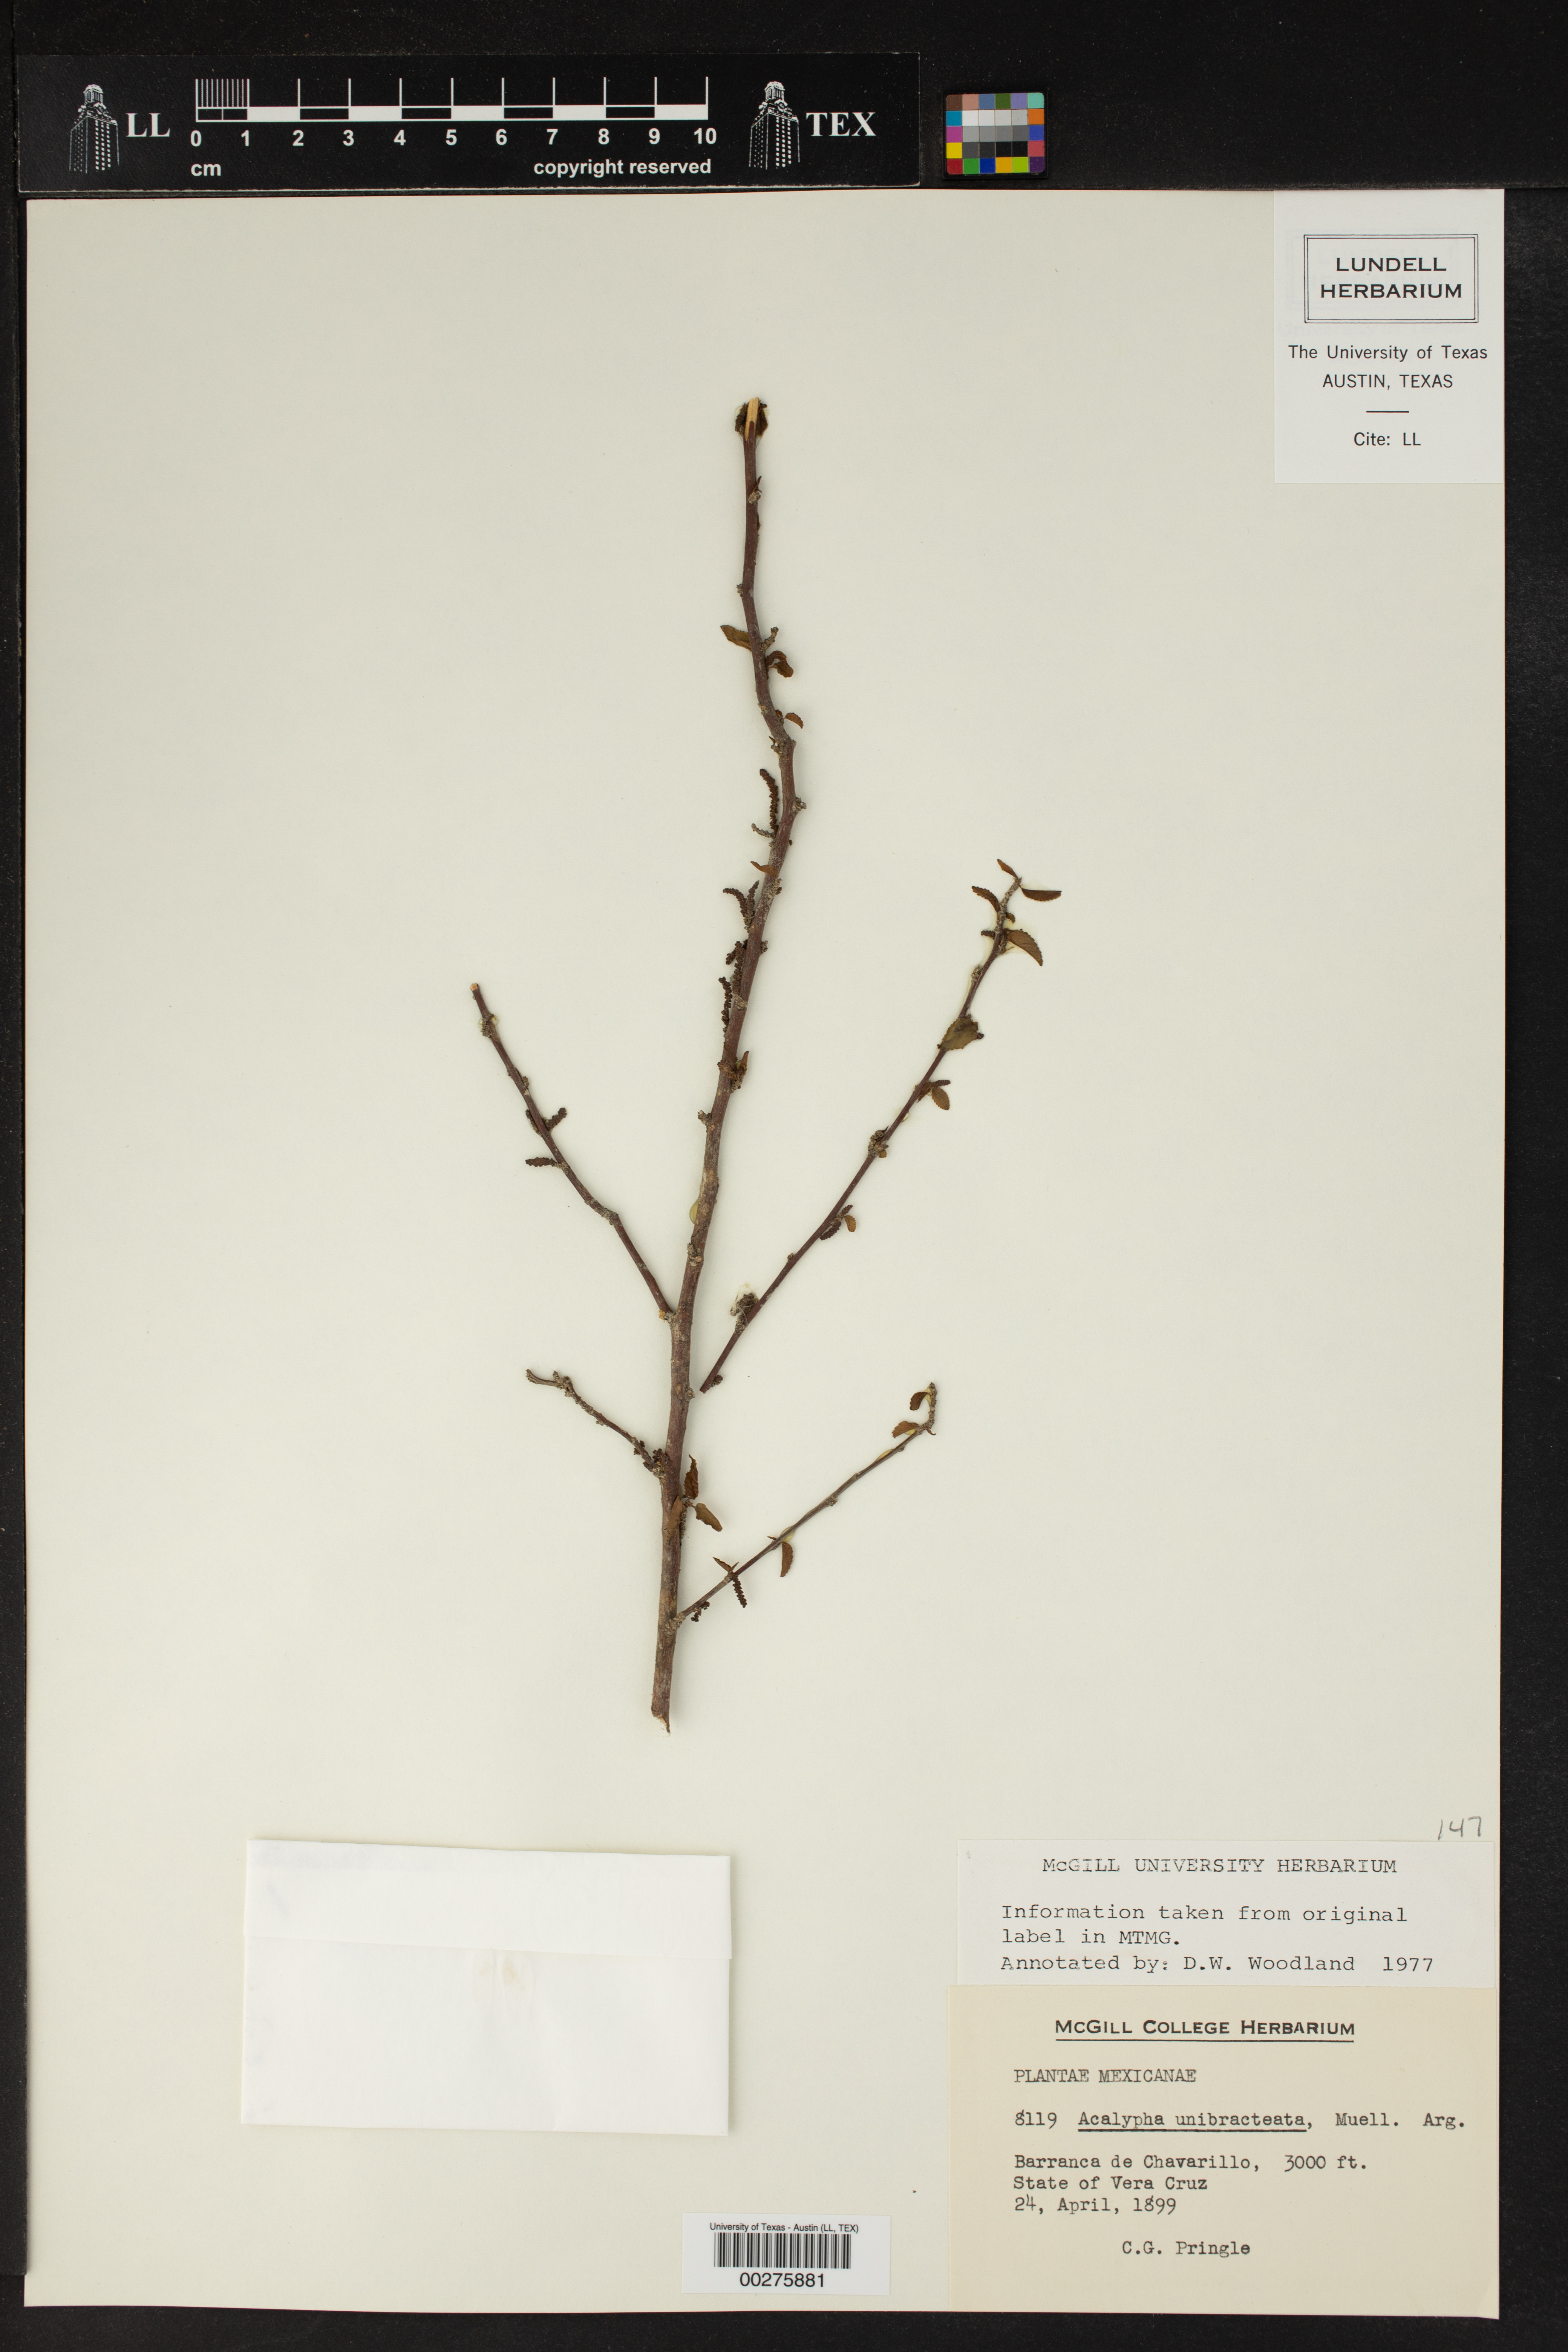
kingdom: Plantae
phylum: Tracheophyta
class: Magnoliopsida
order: Malpighiales
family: Euphorbiaceae
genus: Acalypha
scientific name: Acalypha leptopoda
